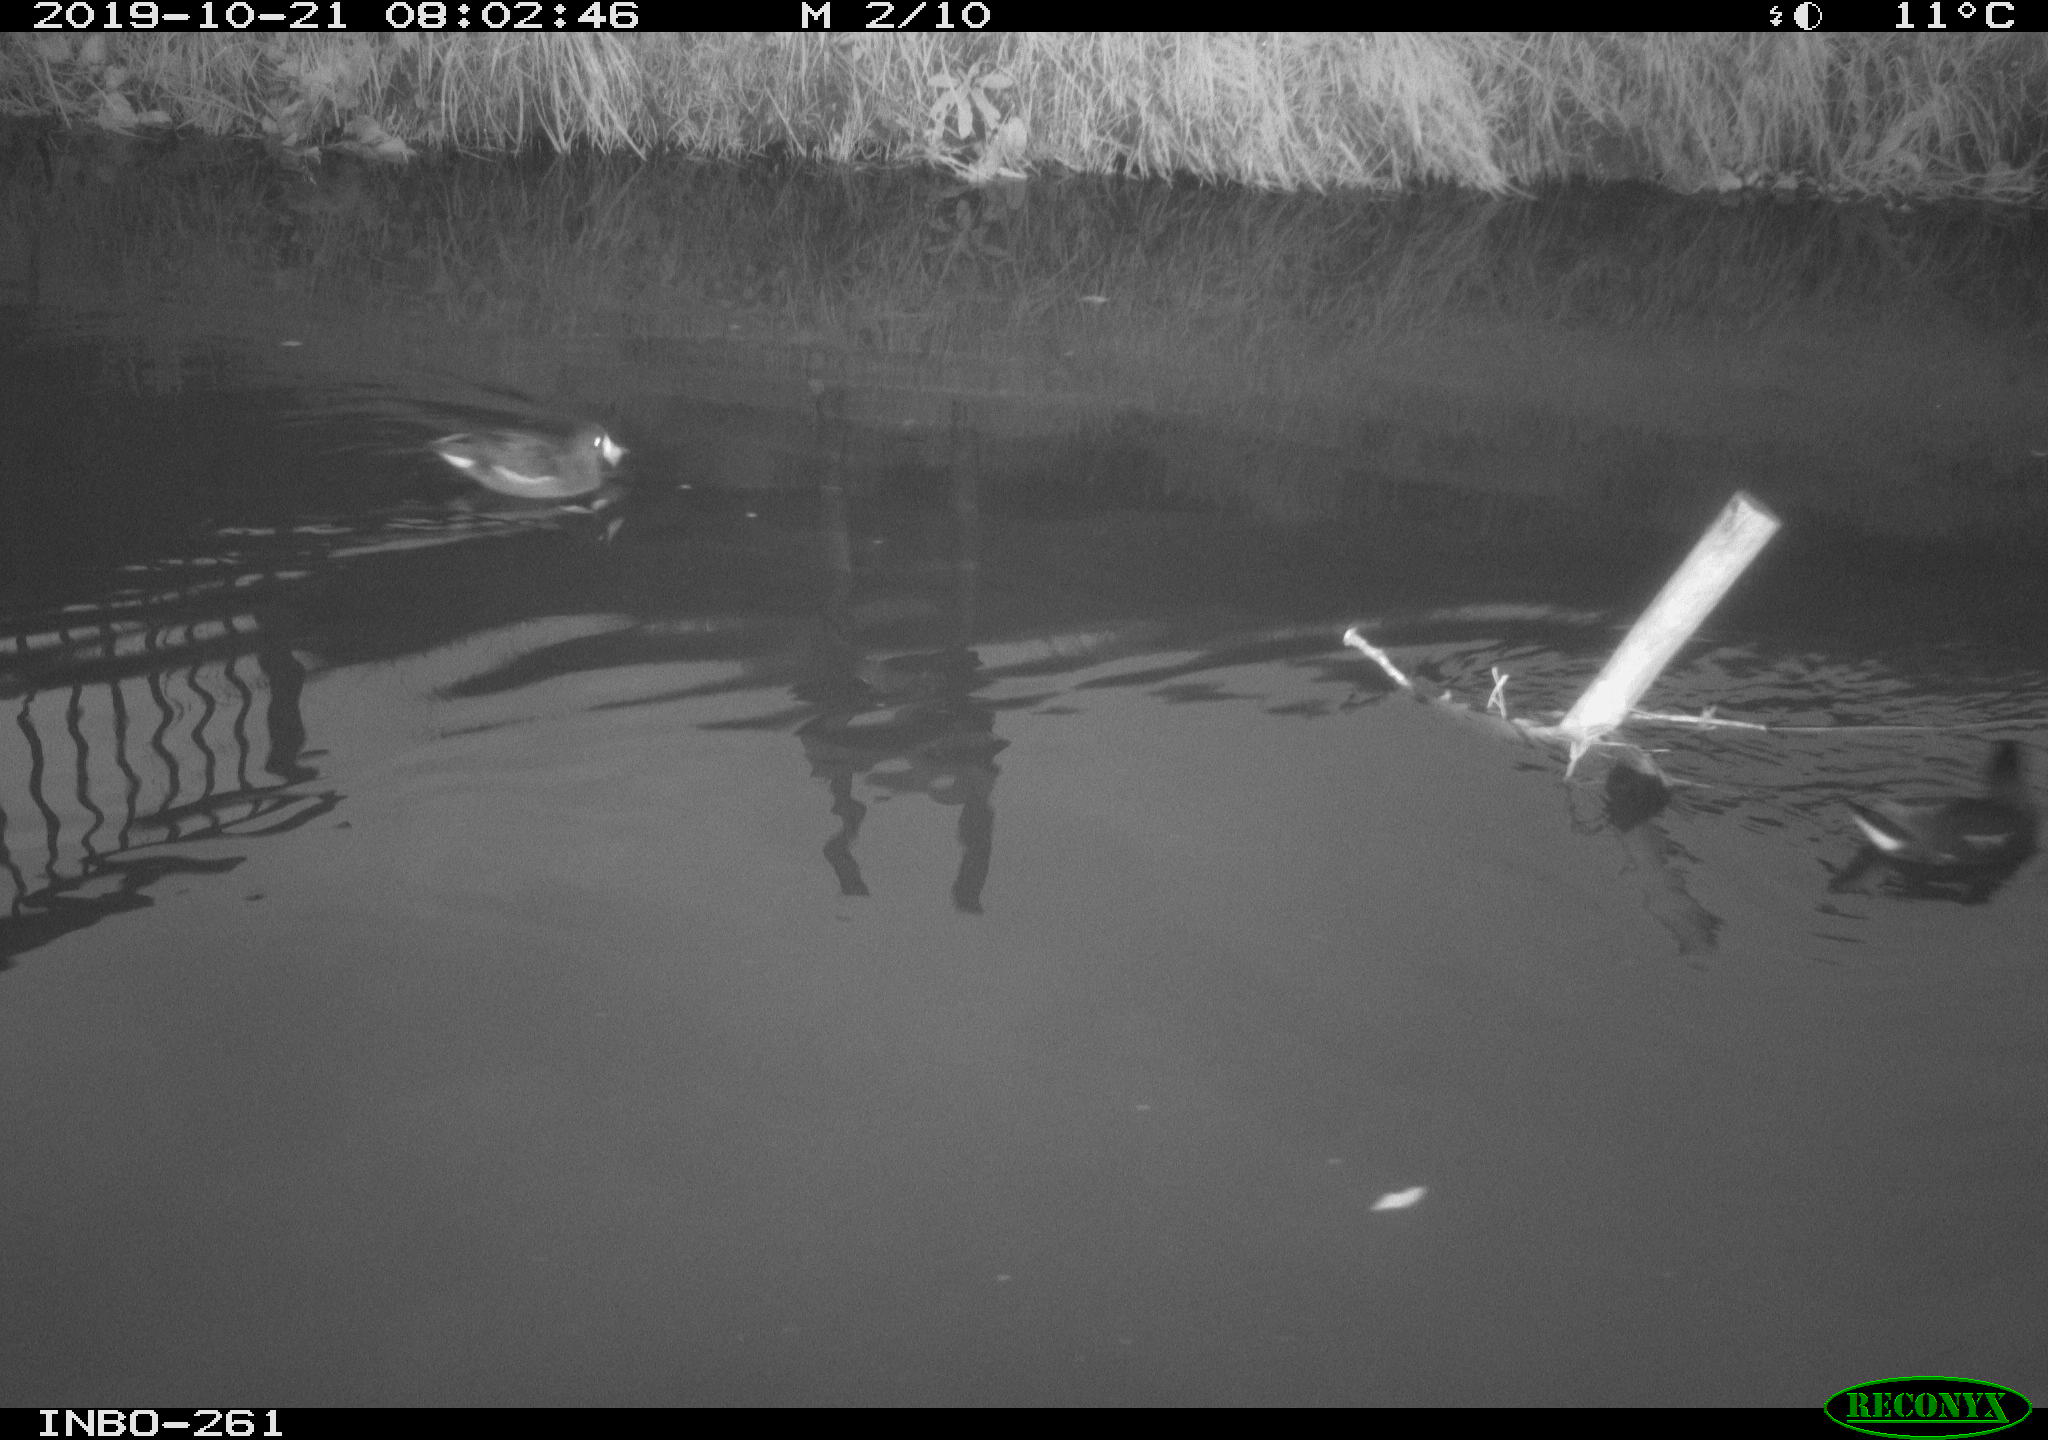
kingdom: Animalia
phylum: Chordata
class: Aves
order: Gruiformes
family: Rallidae
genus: Gallinula
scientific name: Gallinula chloropus
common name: Common moorhen
